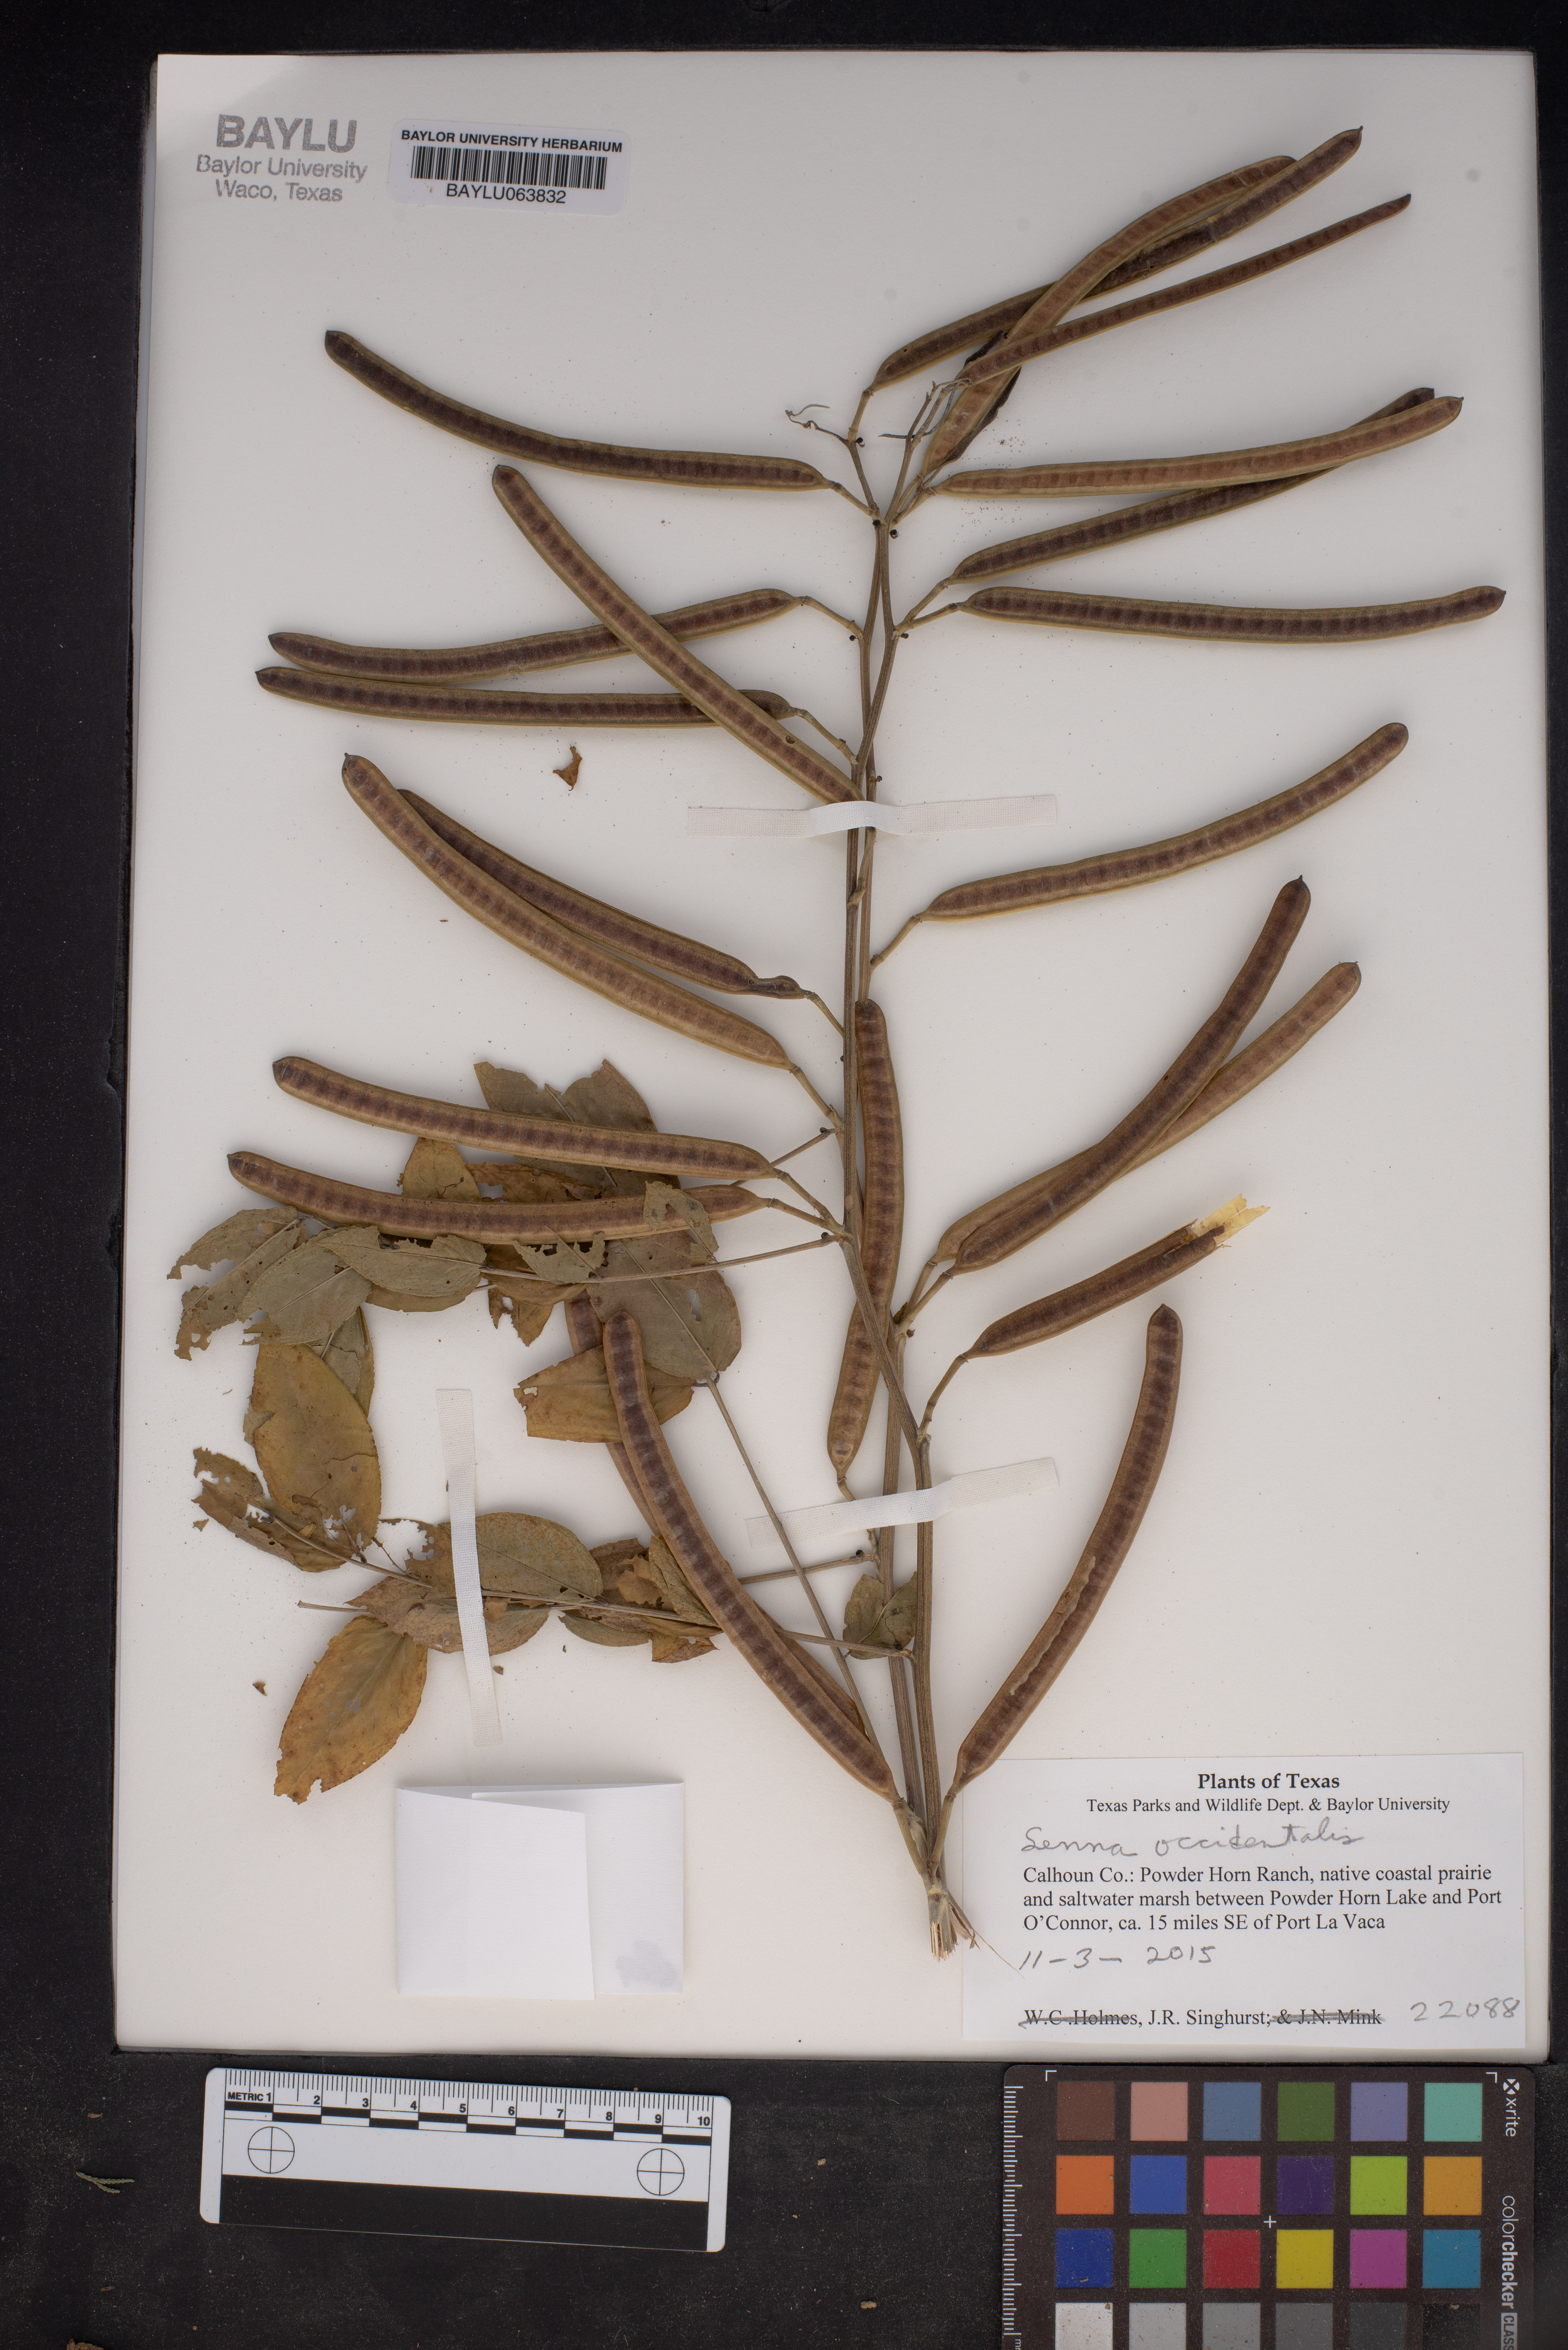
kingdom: Plantae
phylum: Tracheophyta
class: Magnoliopsida
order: Fabales
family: Fabaceae
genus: Senna
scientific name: Senna occidentalis
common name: Septicweed
